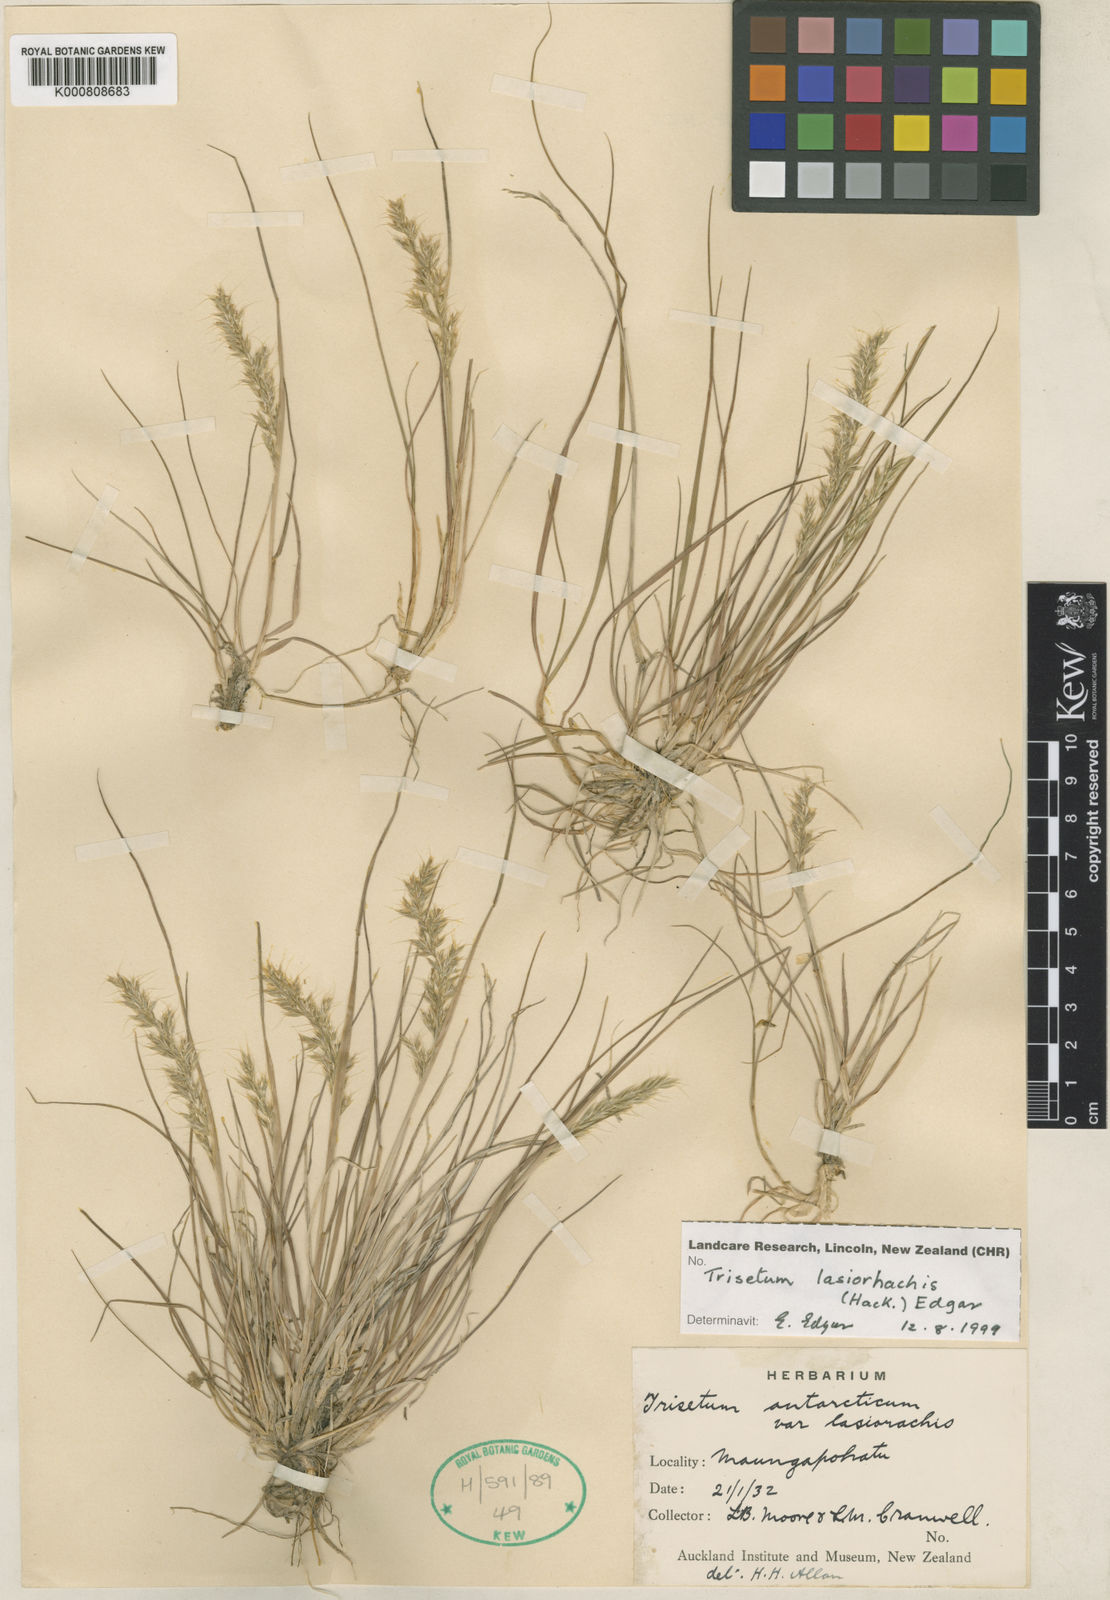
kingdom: Plantae
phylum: Tracheophyta
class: Liliopsida
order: Poales
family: Poaceae
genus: Koeleria
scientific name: Koeleria antarctica
